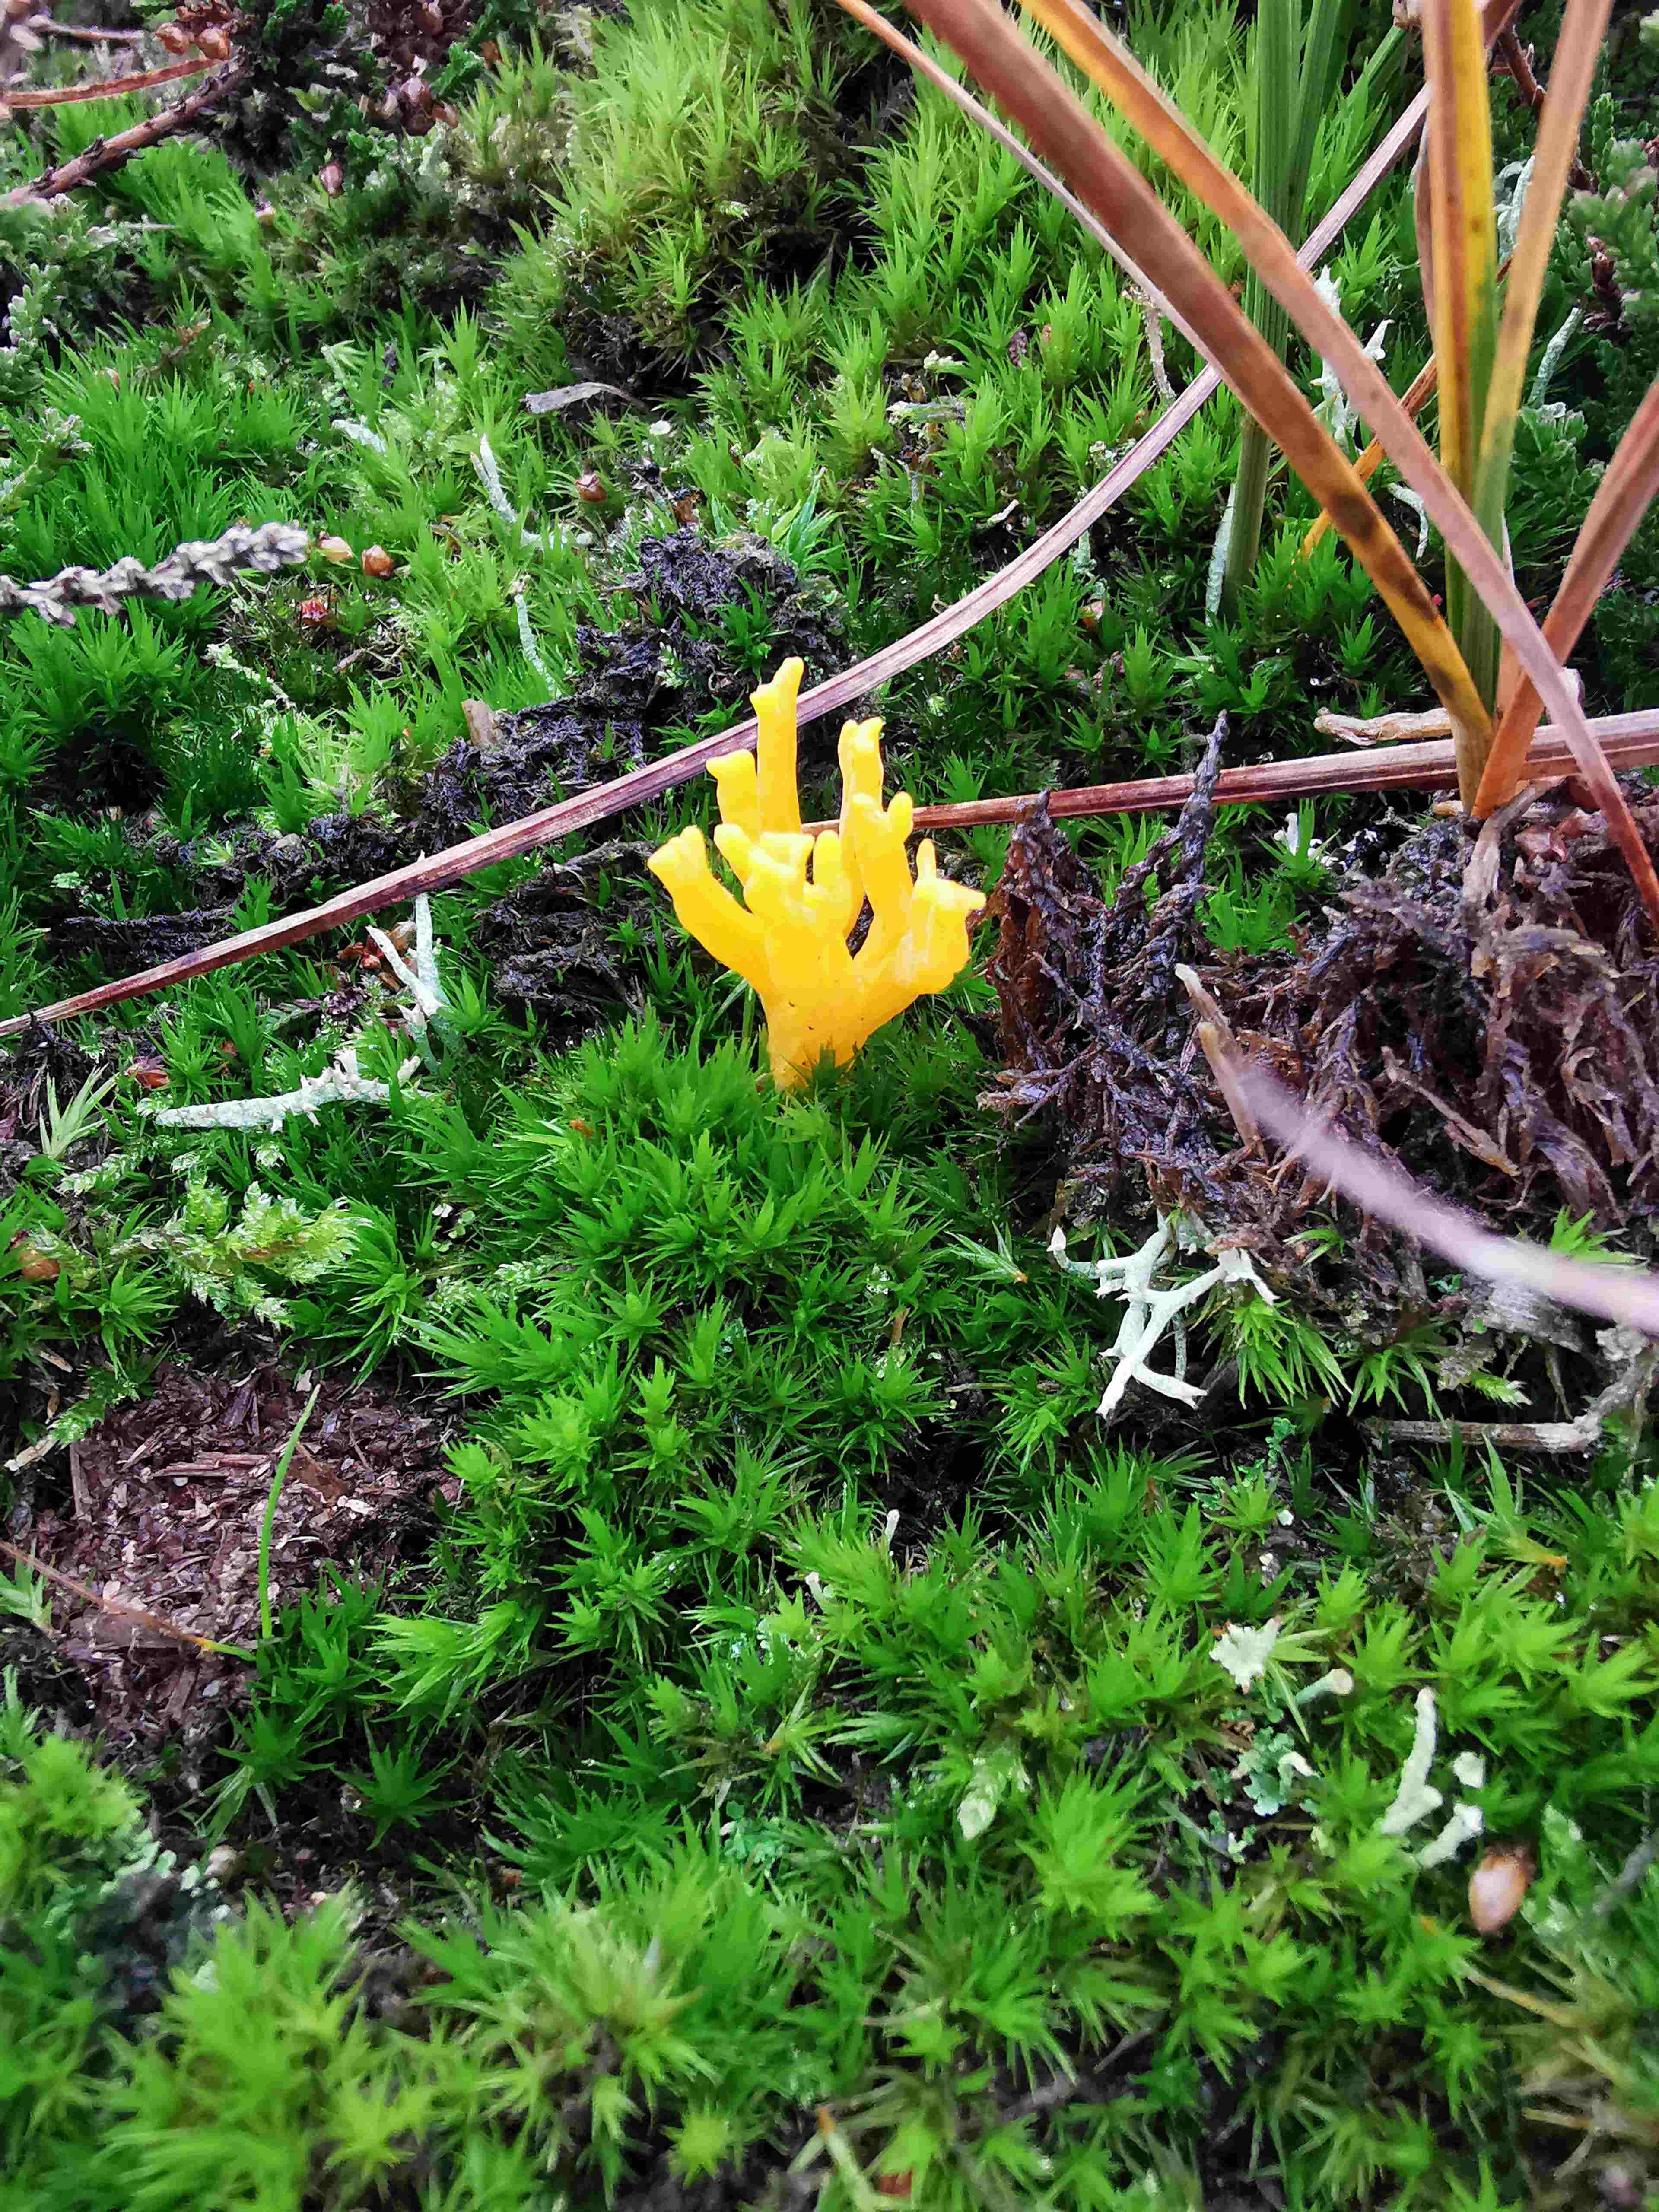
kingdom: Fungi
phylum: Basidiomycota
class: Dacrymycetes
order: Dacrymycetales
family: Dacrymycetaceae
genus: Calocera
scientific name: Calocera viscosa
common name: almindelig guldgaffel
